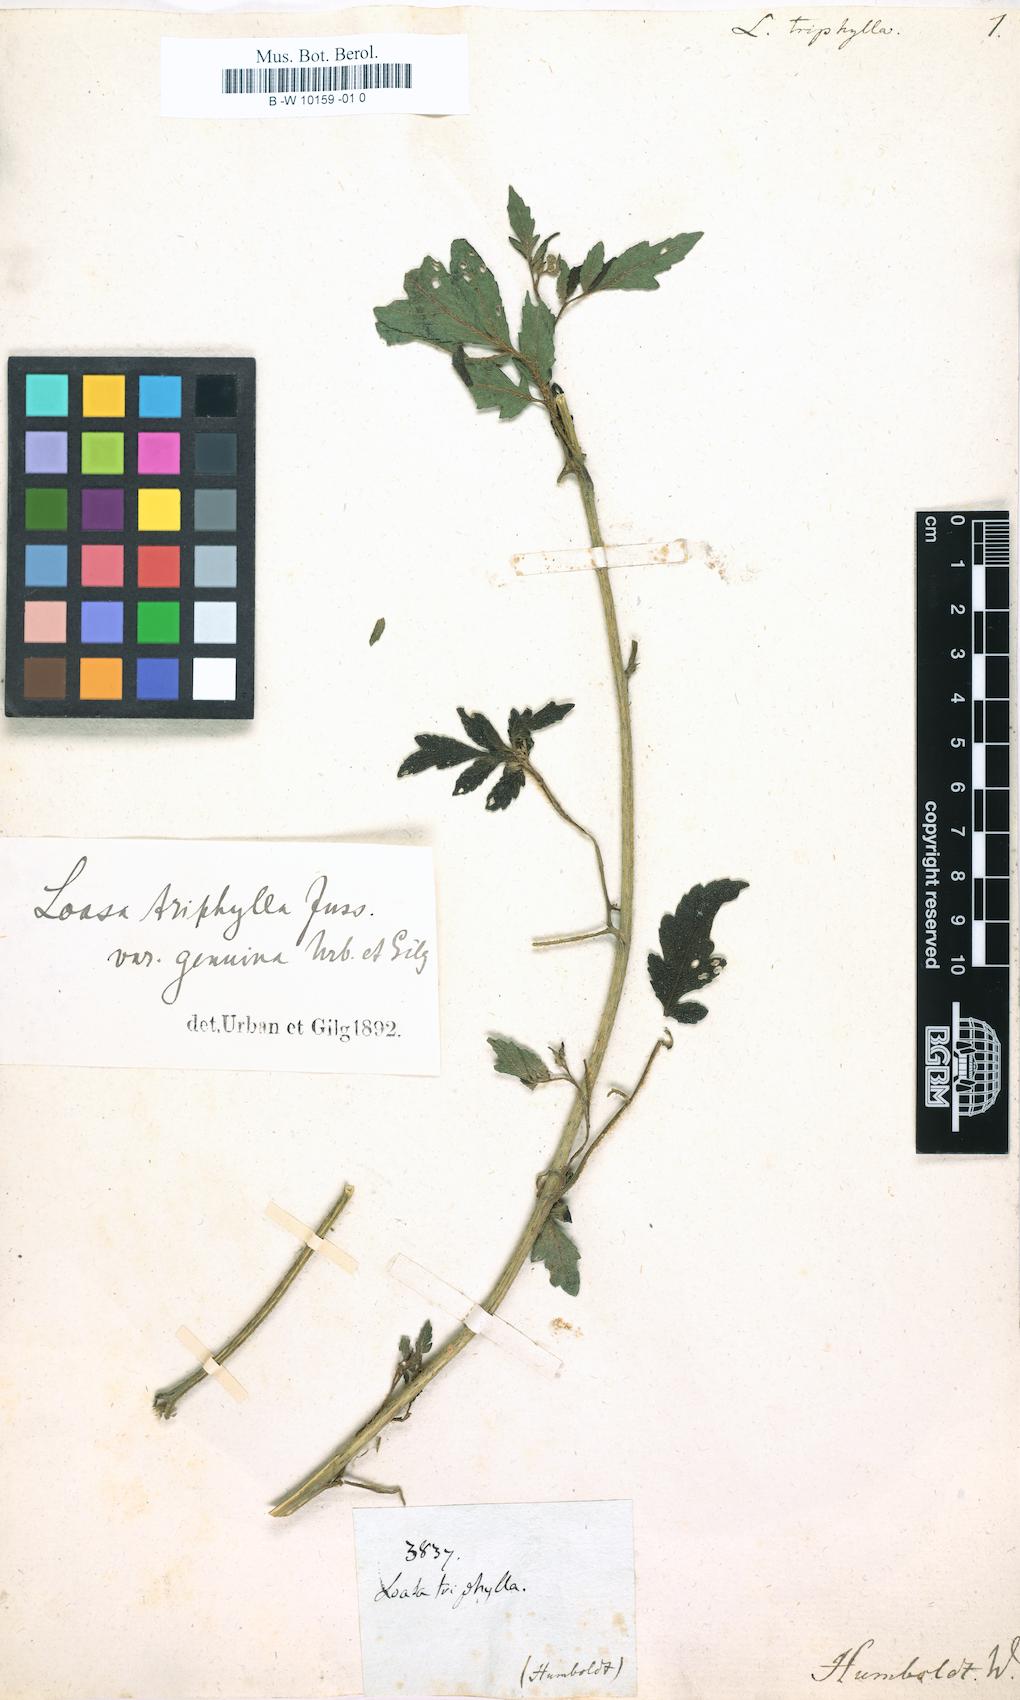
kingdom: Plantae
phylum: Tracheophyta
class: Magnoliopsida
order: Cornales
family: Loasaceae
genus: Nasa
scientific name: Nasa
